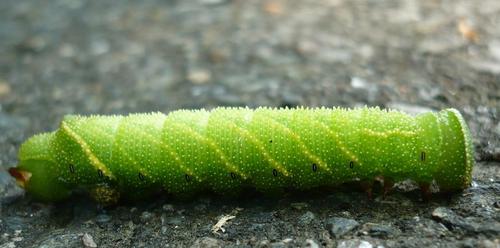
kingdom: Animalia
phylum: Arthropoda
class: Insecta
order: Lepidoptera
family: Sphingidae
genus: Paonias
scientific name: Paonias excaecata
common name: Blind-eyed sphinx
